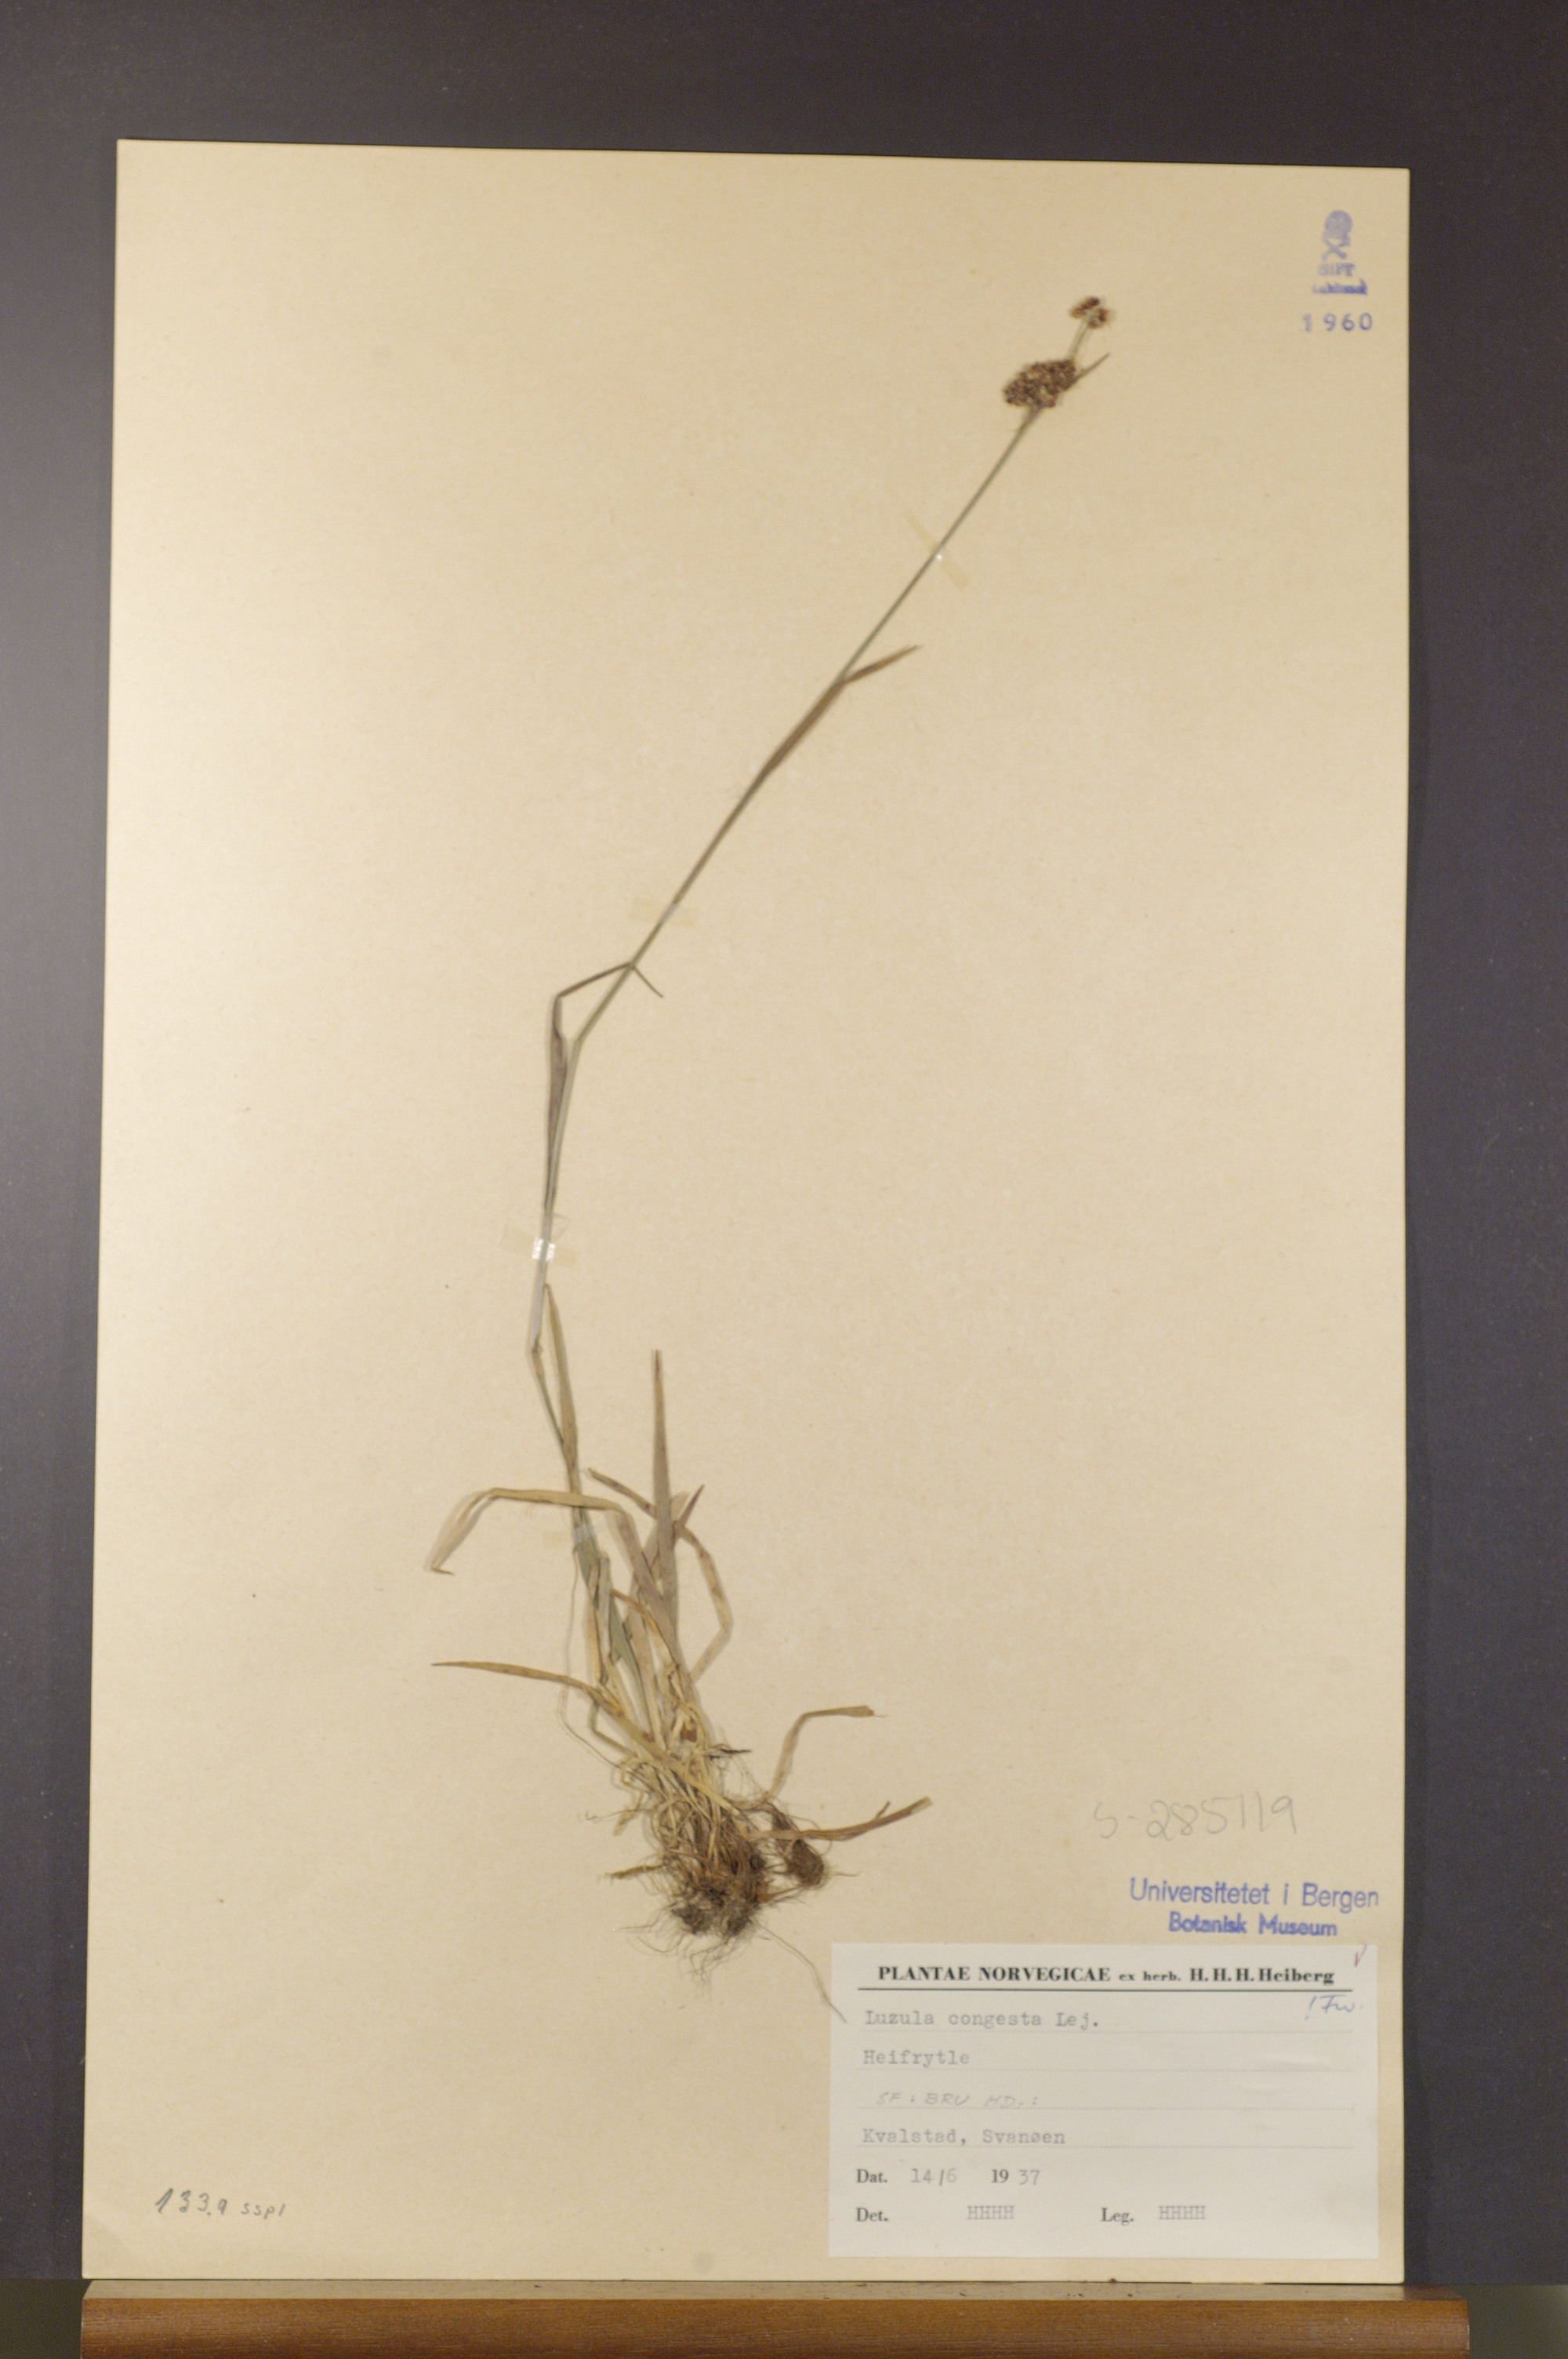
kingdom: Plantae
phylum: Tracheophyta
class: Liliopsida
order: Poales
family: Juncaceae
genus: Luzula
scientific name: Luzula congesta
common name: Heath woodrush
